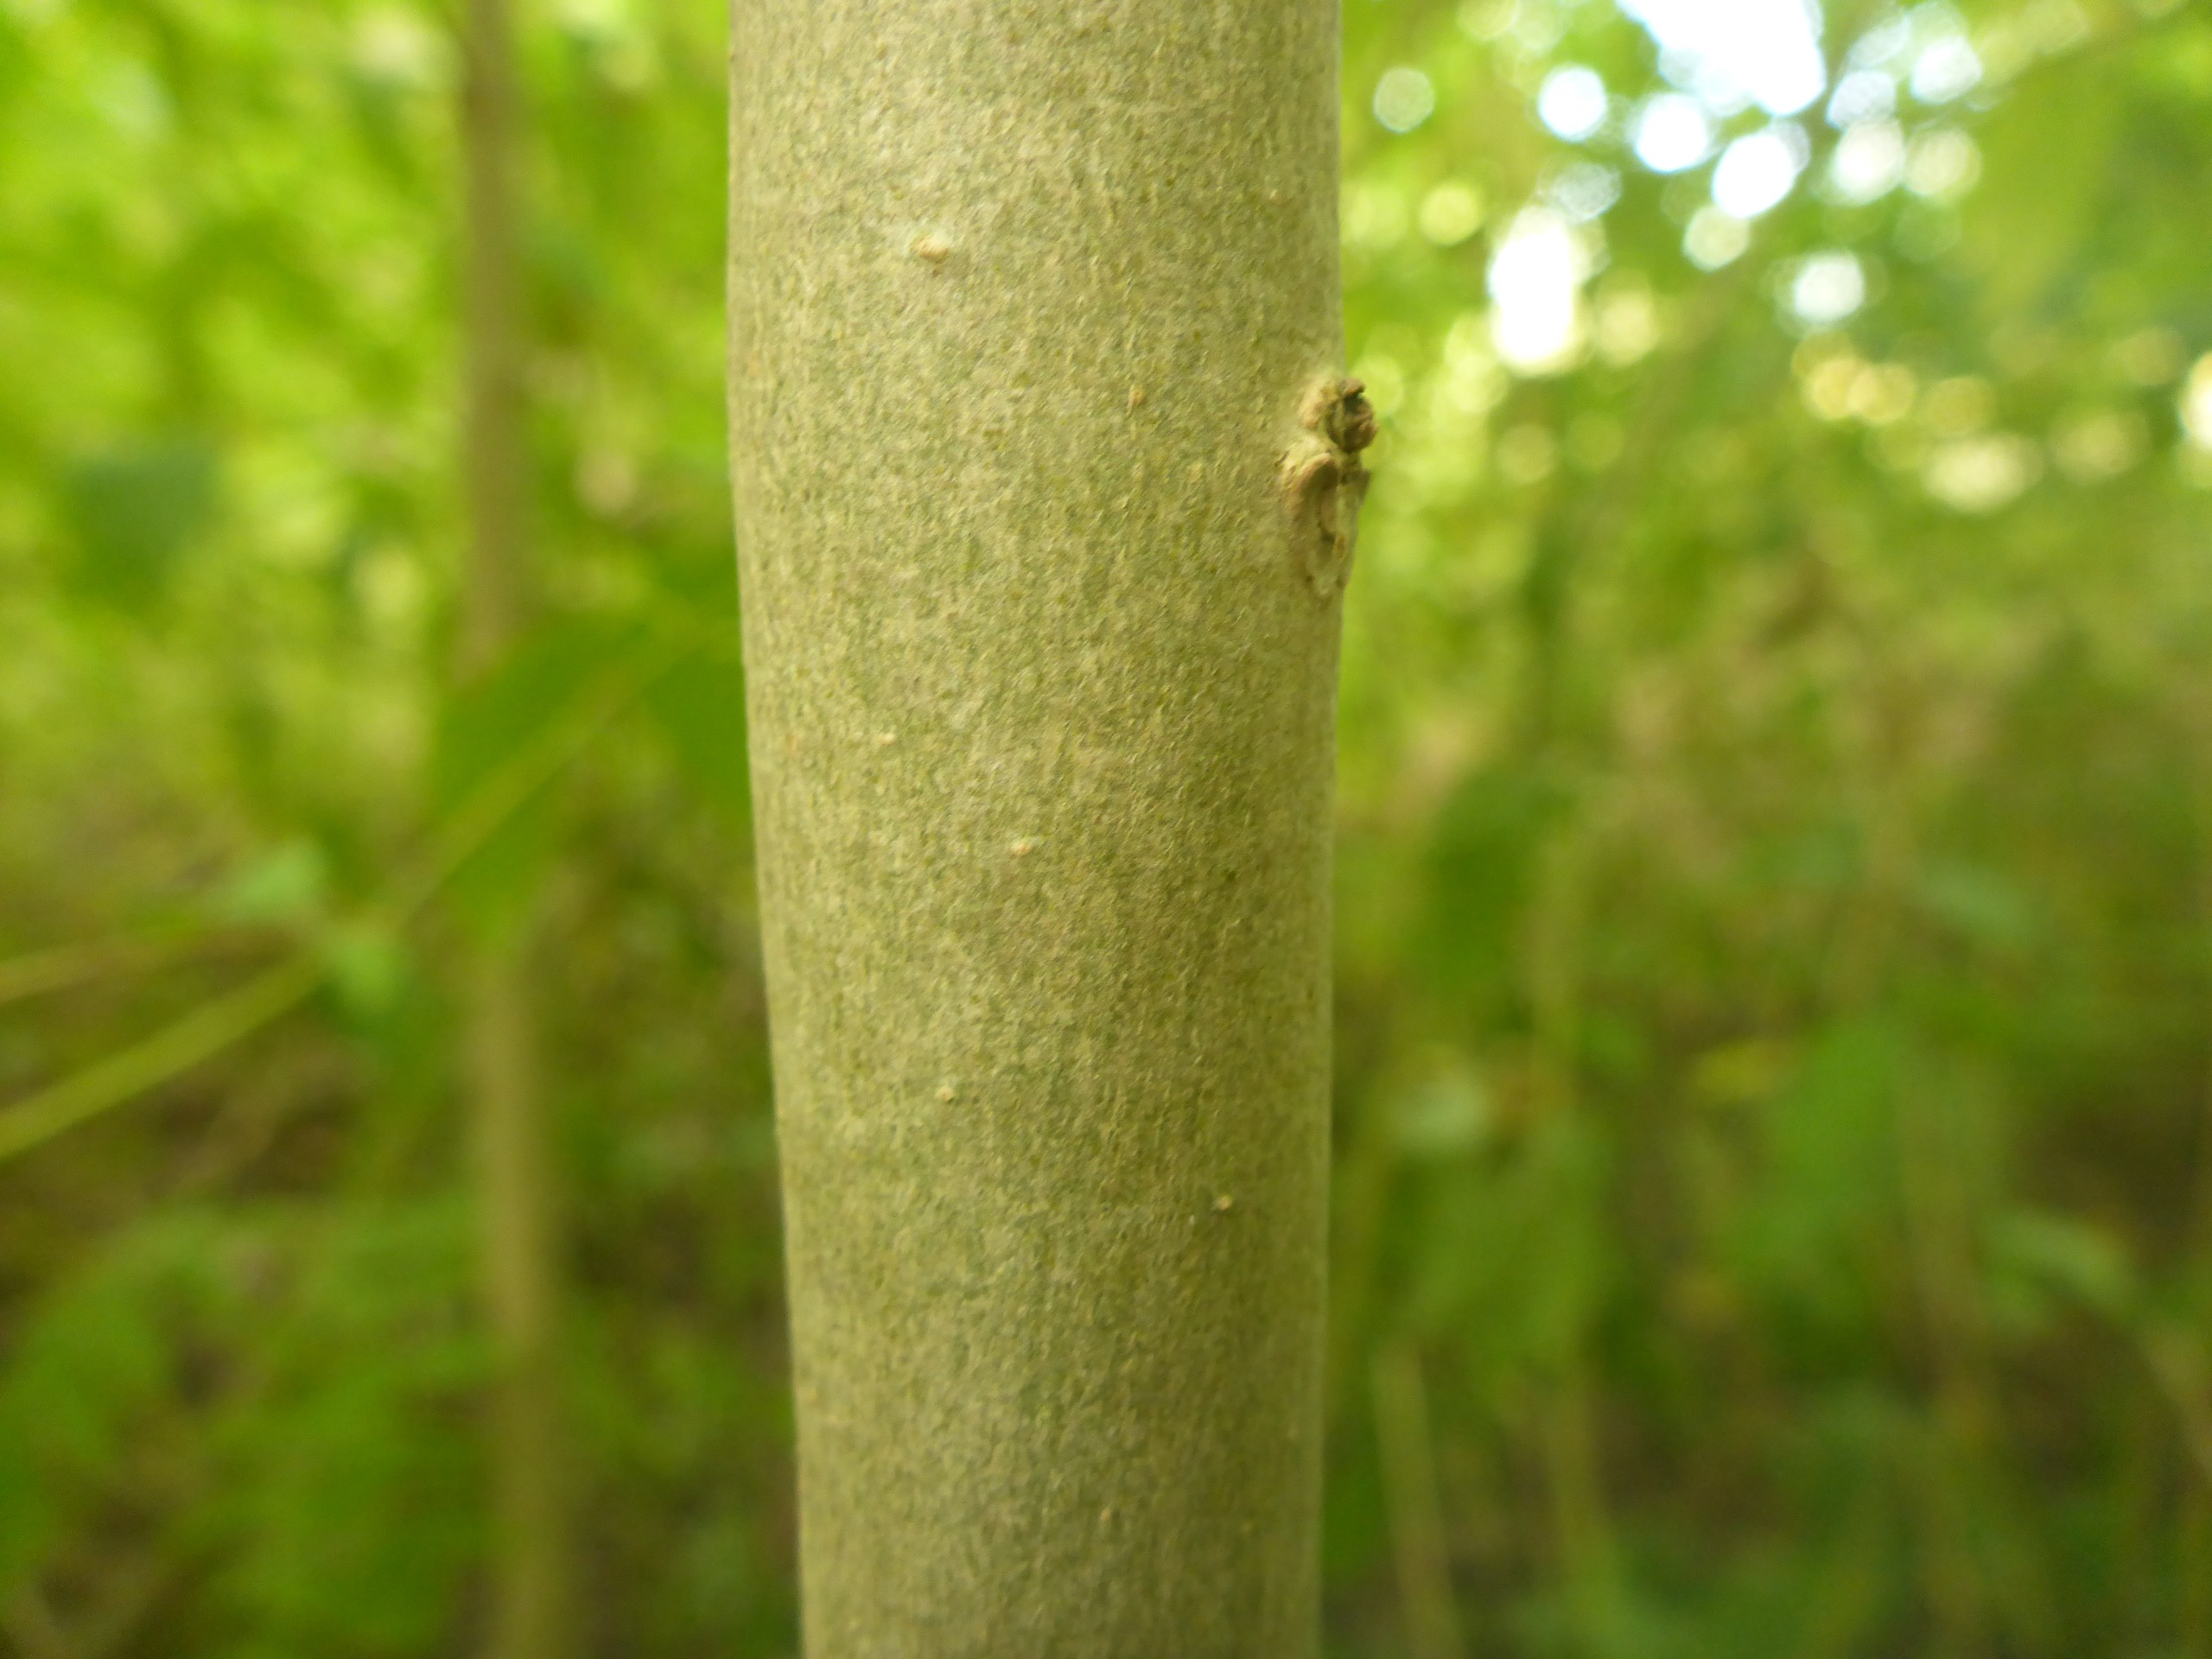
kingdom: Plantae
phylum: Tracheophyta
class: Magnoliopsida
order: Lamiales
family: Oleaceae
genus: Fraxinus
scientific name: Fraxinus excelsior
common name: Ask
